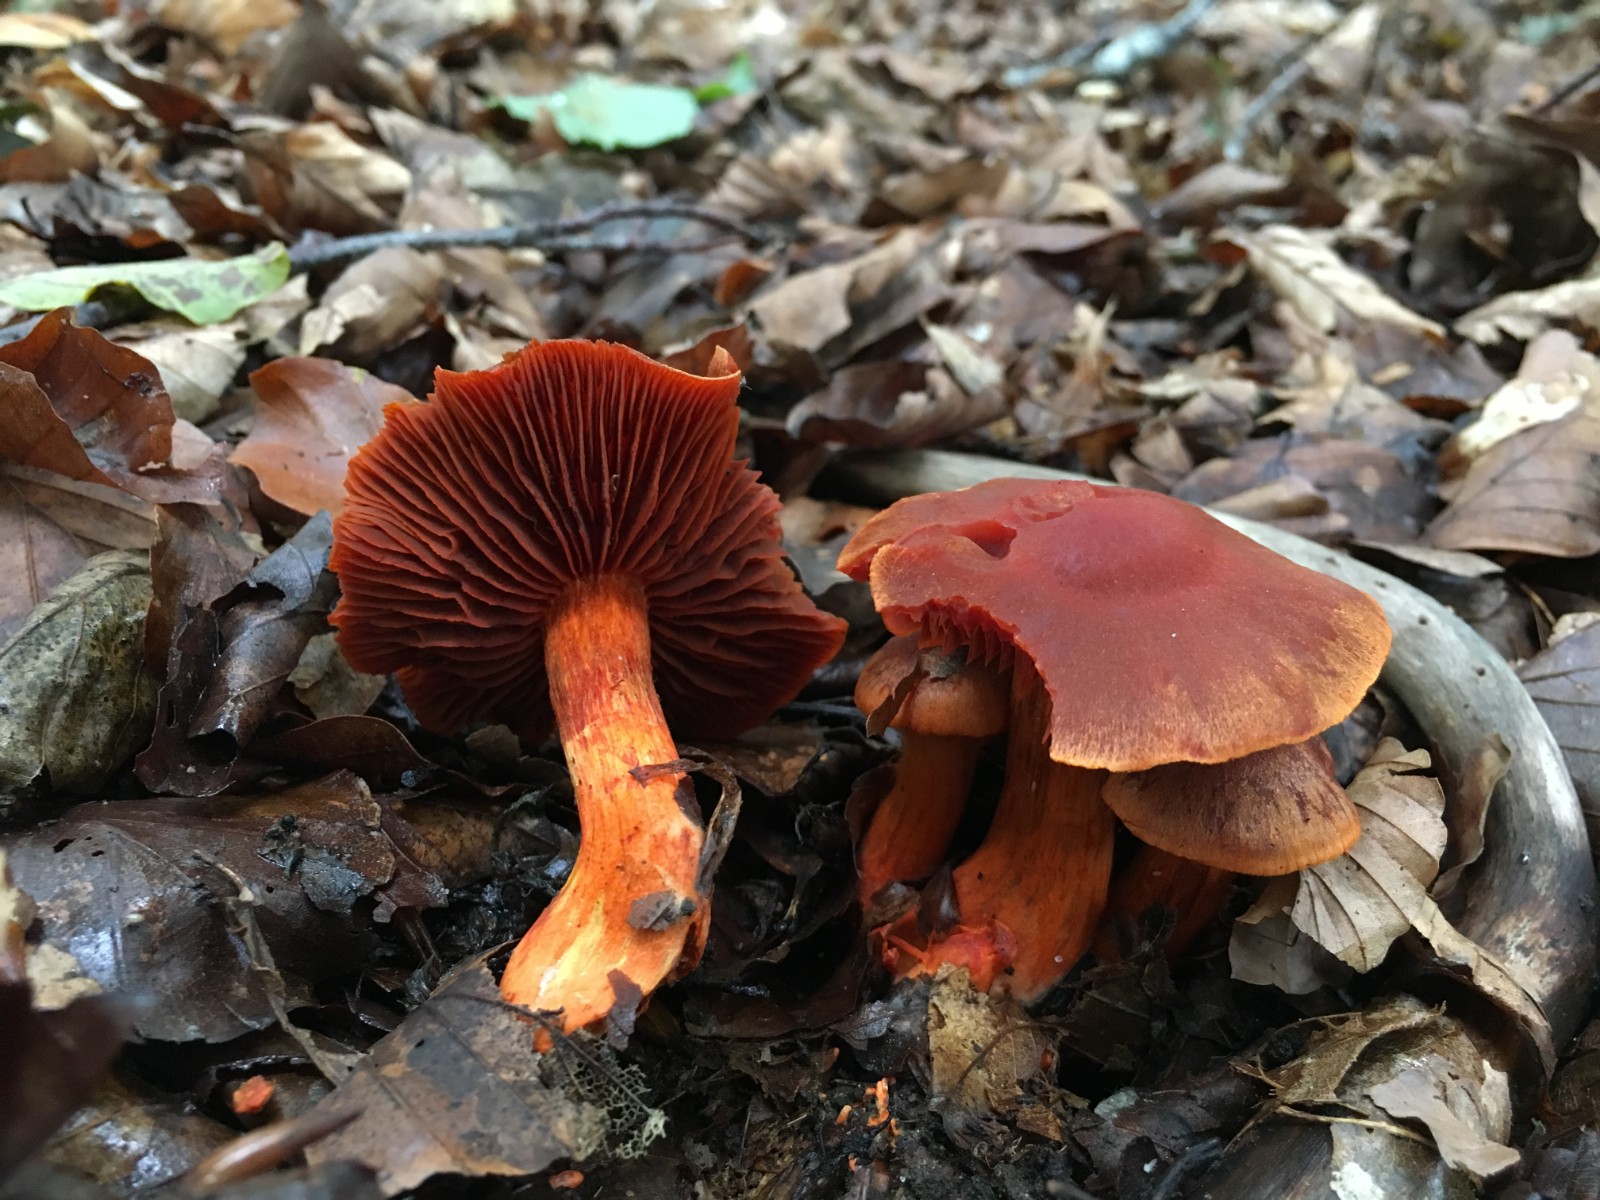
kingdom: Fungi
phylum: Basidiomycota
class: Agaricomycetes
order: Agaricales
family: Cortinariaceae
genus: Cortinarius
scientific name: Cortinarius cinnabarinus
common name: cinnober-slørhat
